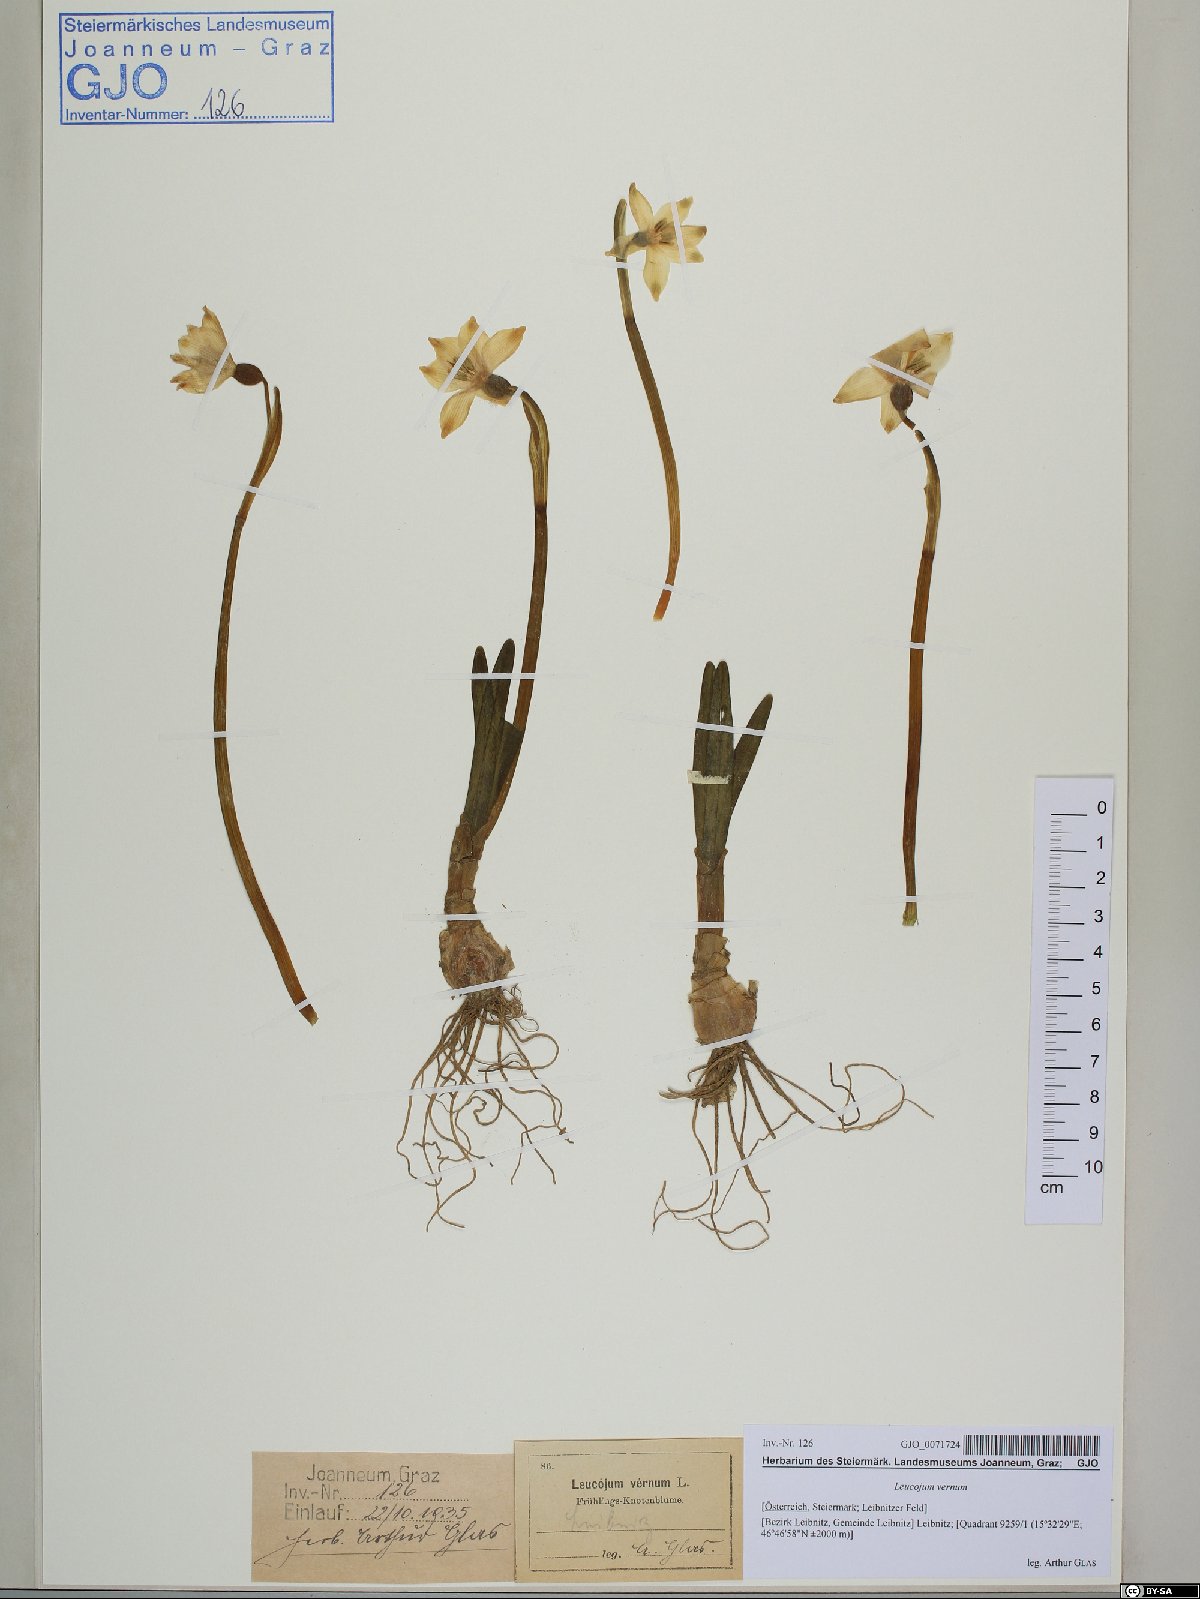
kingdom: Plantae
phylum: Tracheophyta
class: Liliopsida
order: Asparagales
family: Amaryllidaceae
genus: Leucojum
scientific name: Leucojum vernum
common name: Spring snowflake
